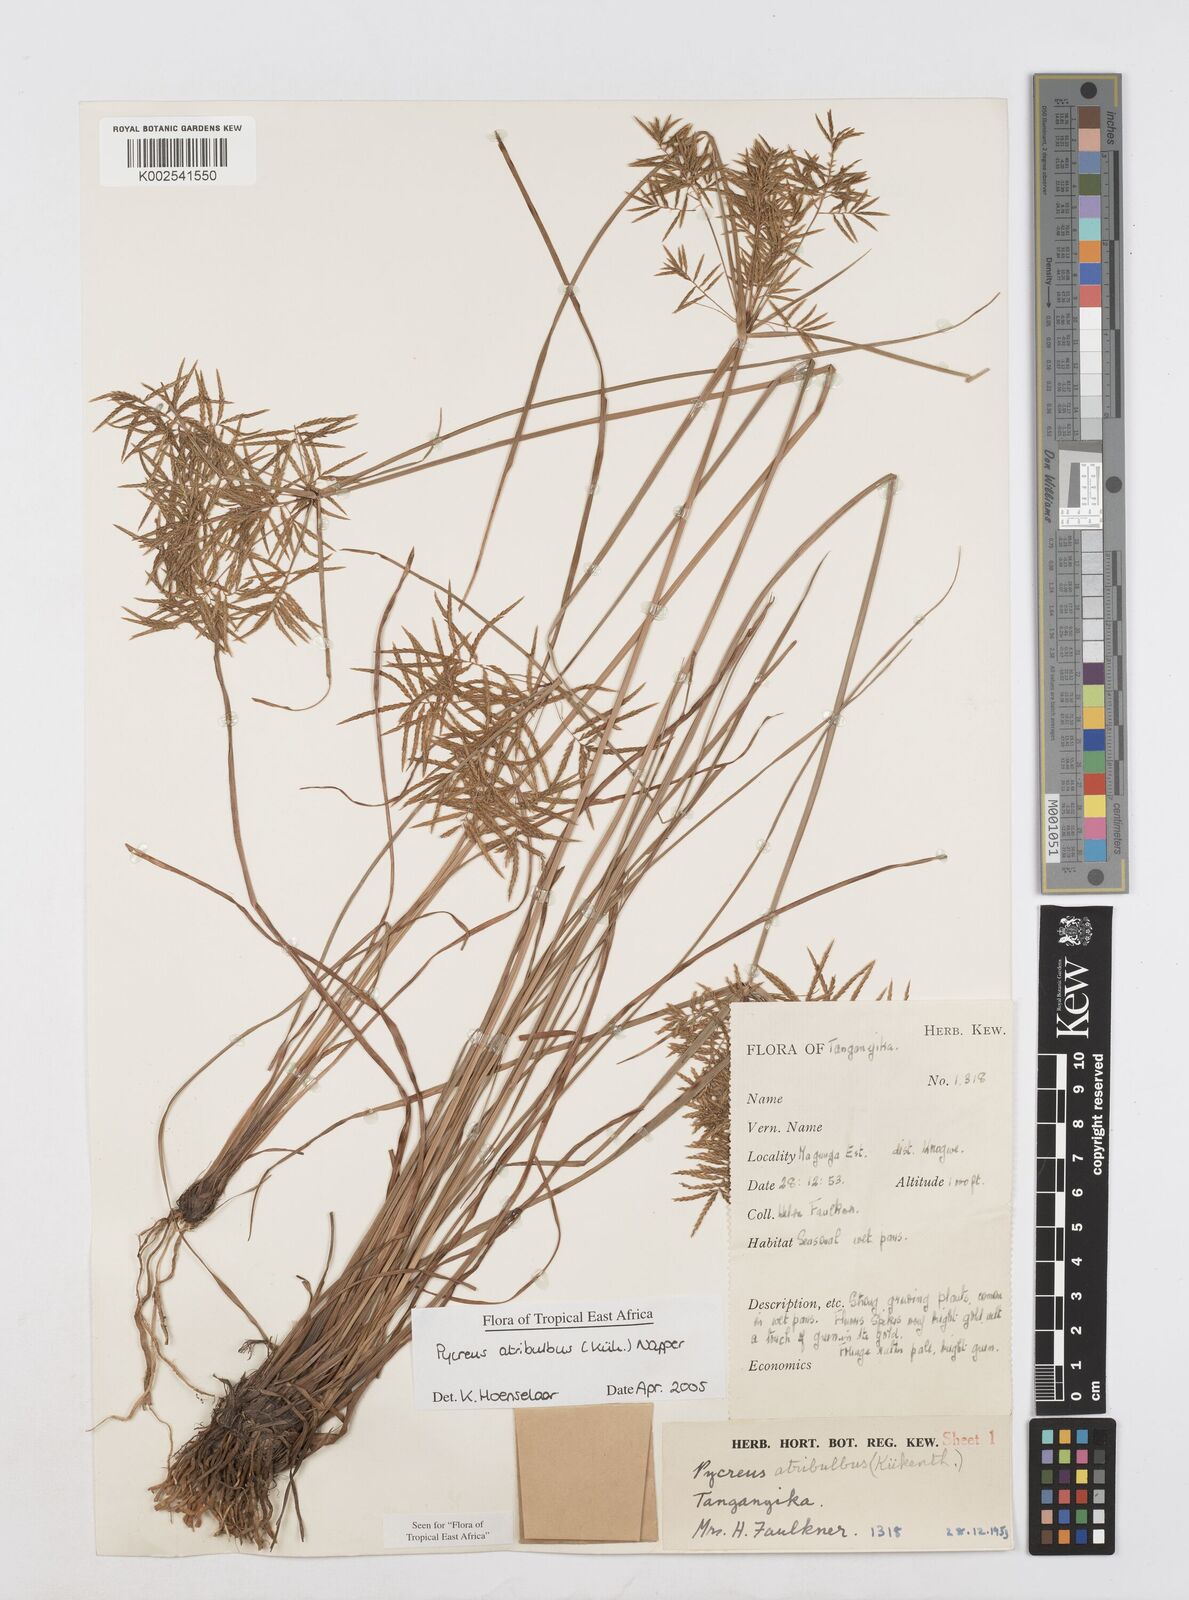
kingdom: Plantae
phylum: Tracheophyta
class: Liliopsida
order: Poales
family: Cyperaceae
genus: Cyperus
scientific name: Cyperus intactus
